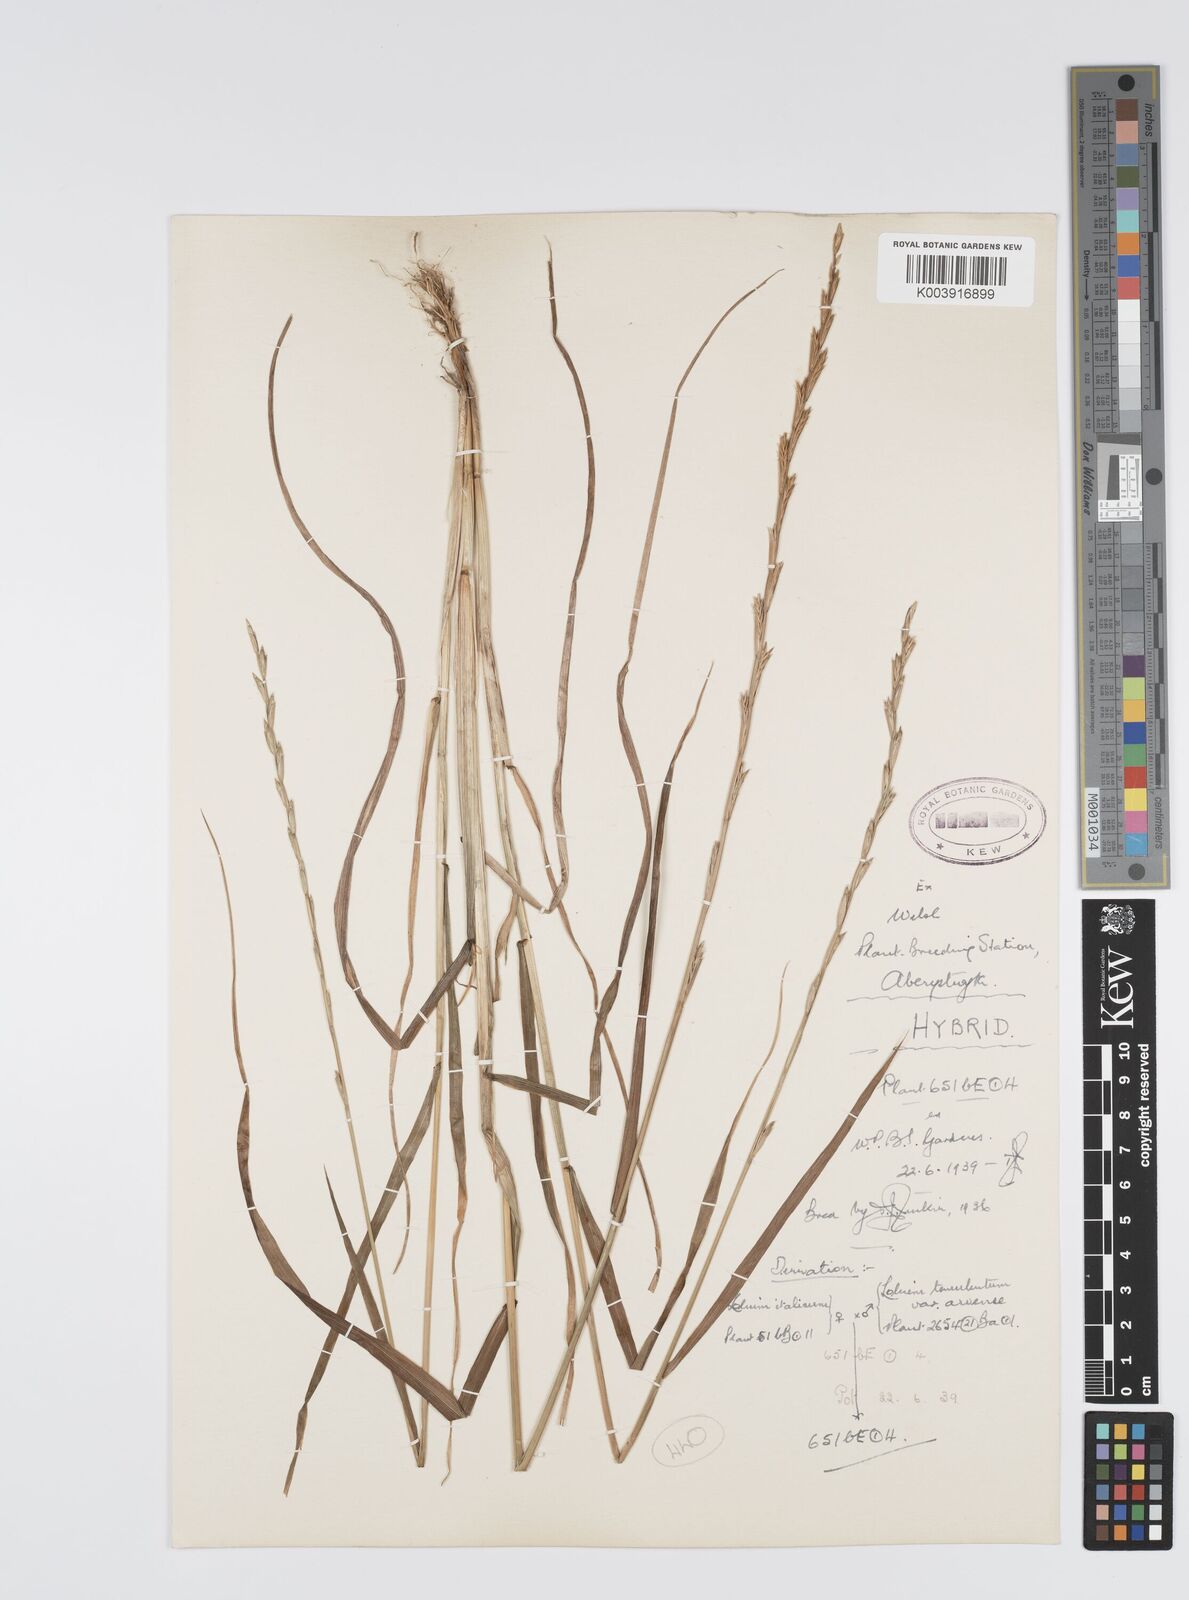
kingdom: Plantae
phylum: Tracheophyta
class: Liliopsida
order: Poales
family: Poaceae
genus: Lolium
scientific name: Lolium multiflorum
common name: Annual ryegrass
